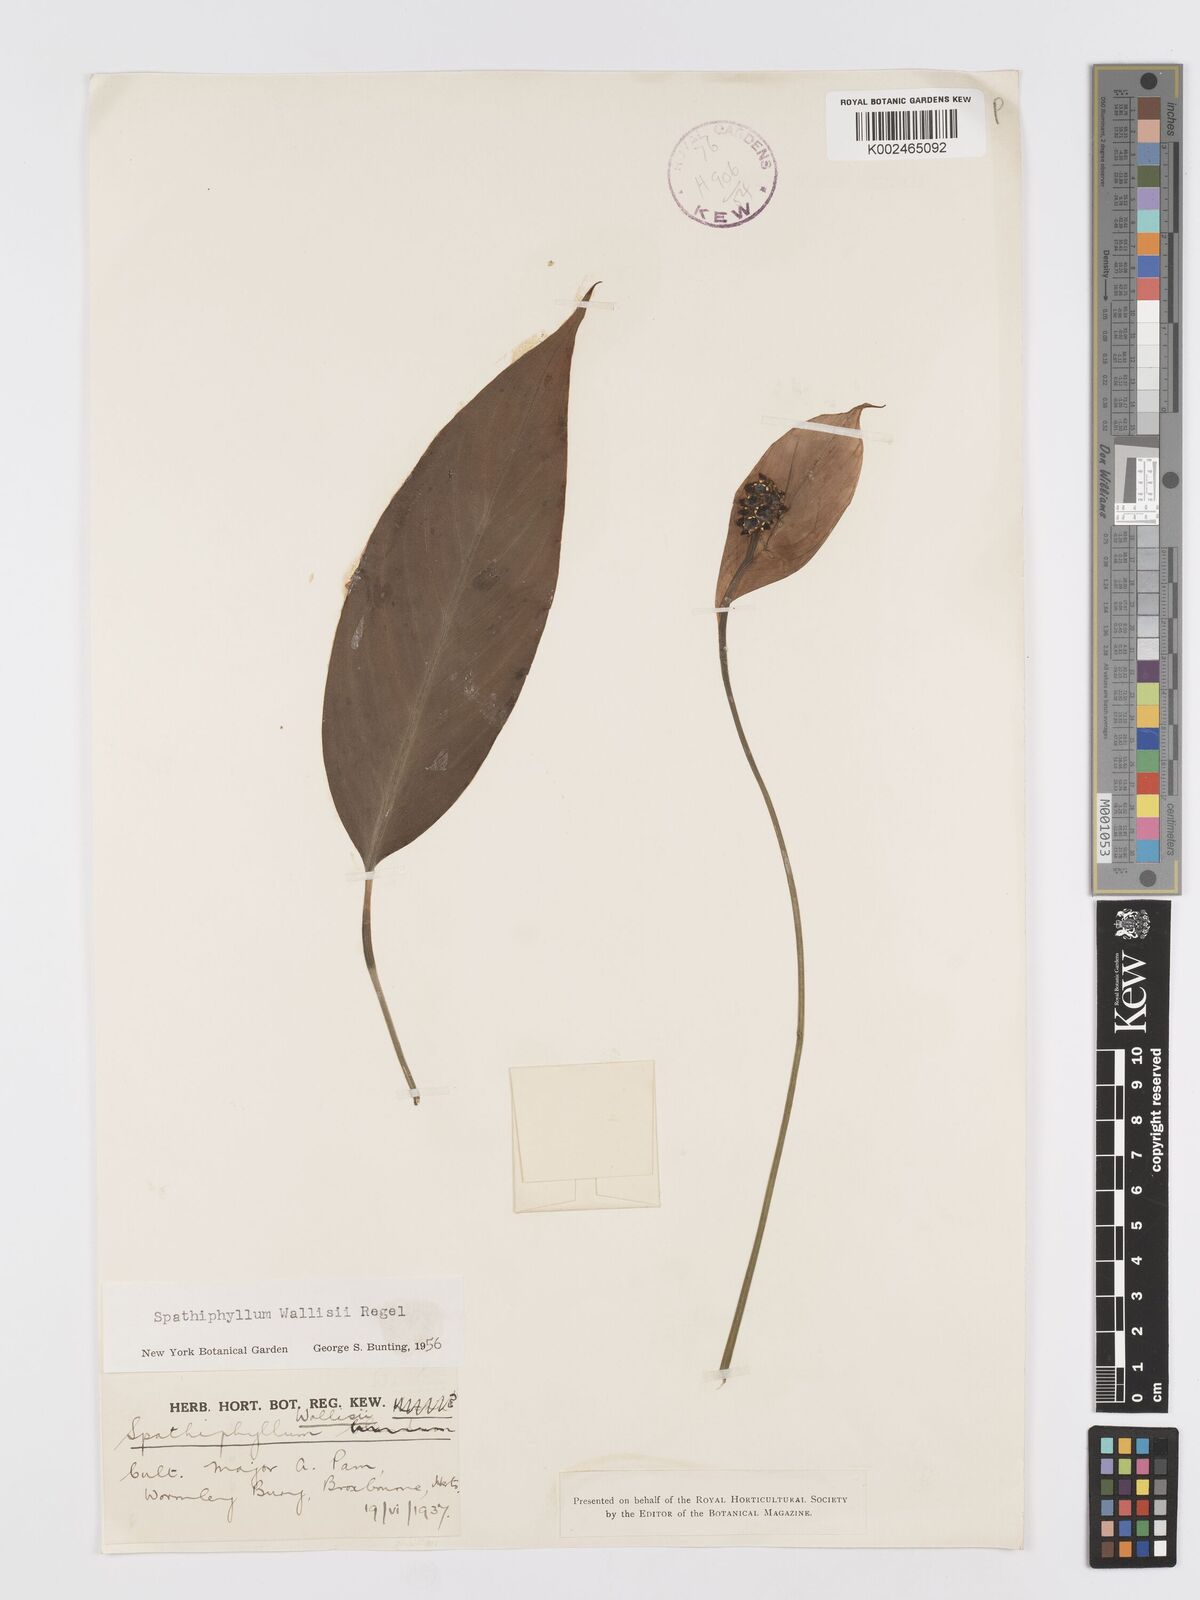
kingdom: Plantae
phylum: Tracheophyta
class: Liliopsida
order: Alismatales
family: Araceae
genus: Spathiphyllum
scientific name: Spathiphyllum wallisii
